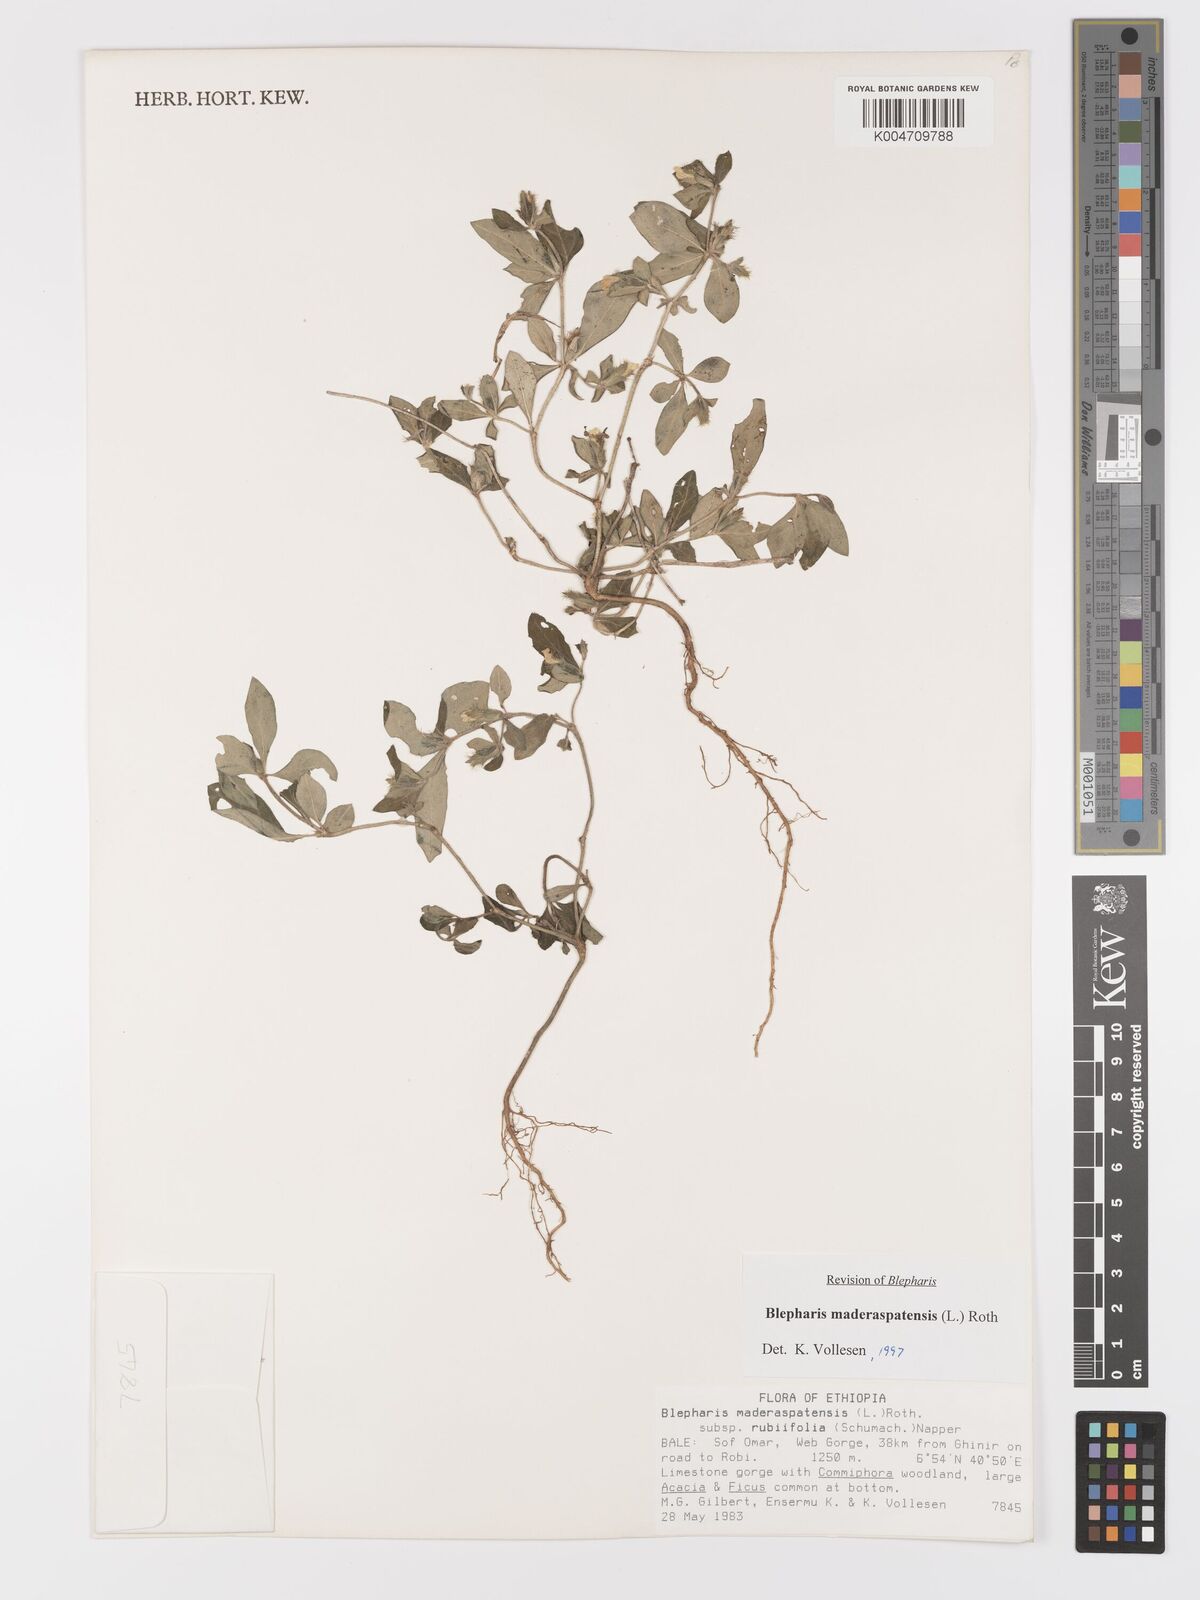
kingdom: Plantae
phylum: Tracheophyta
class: Magnoliopsida
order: Lamiales
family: Acanthaceae
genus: Blepharis
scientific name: Blepharis maderaspatensis
